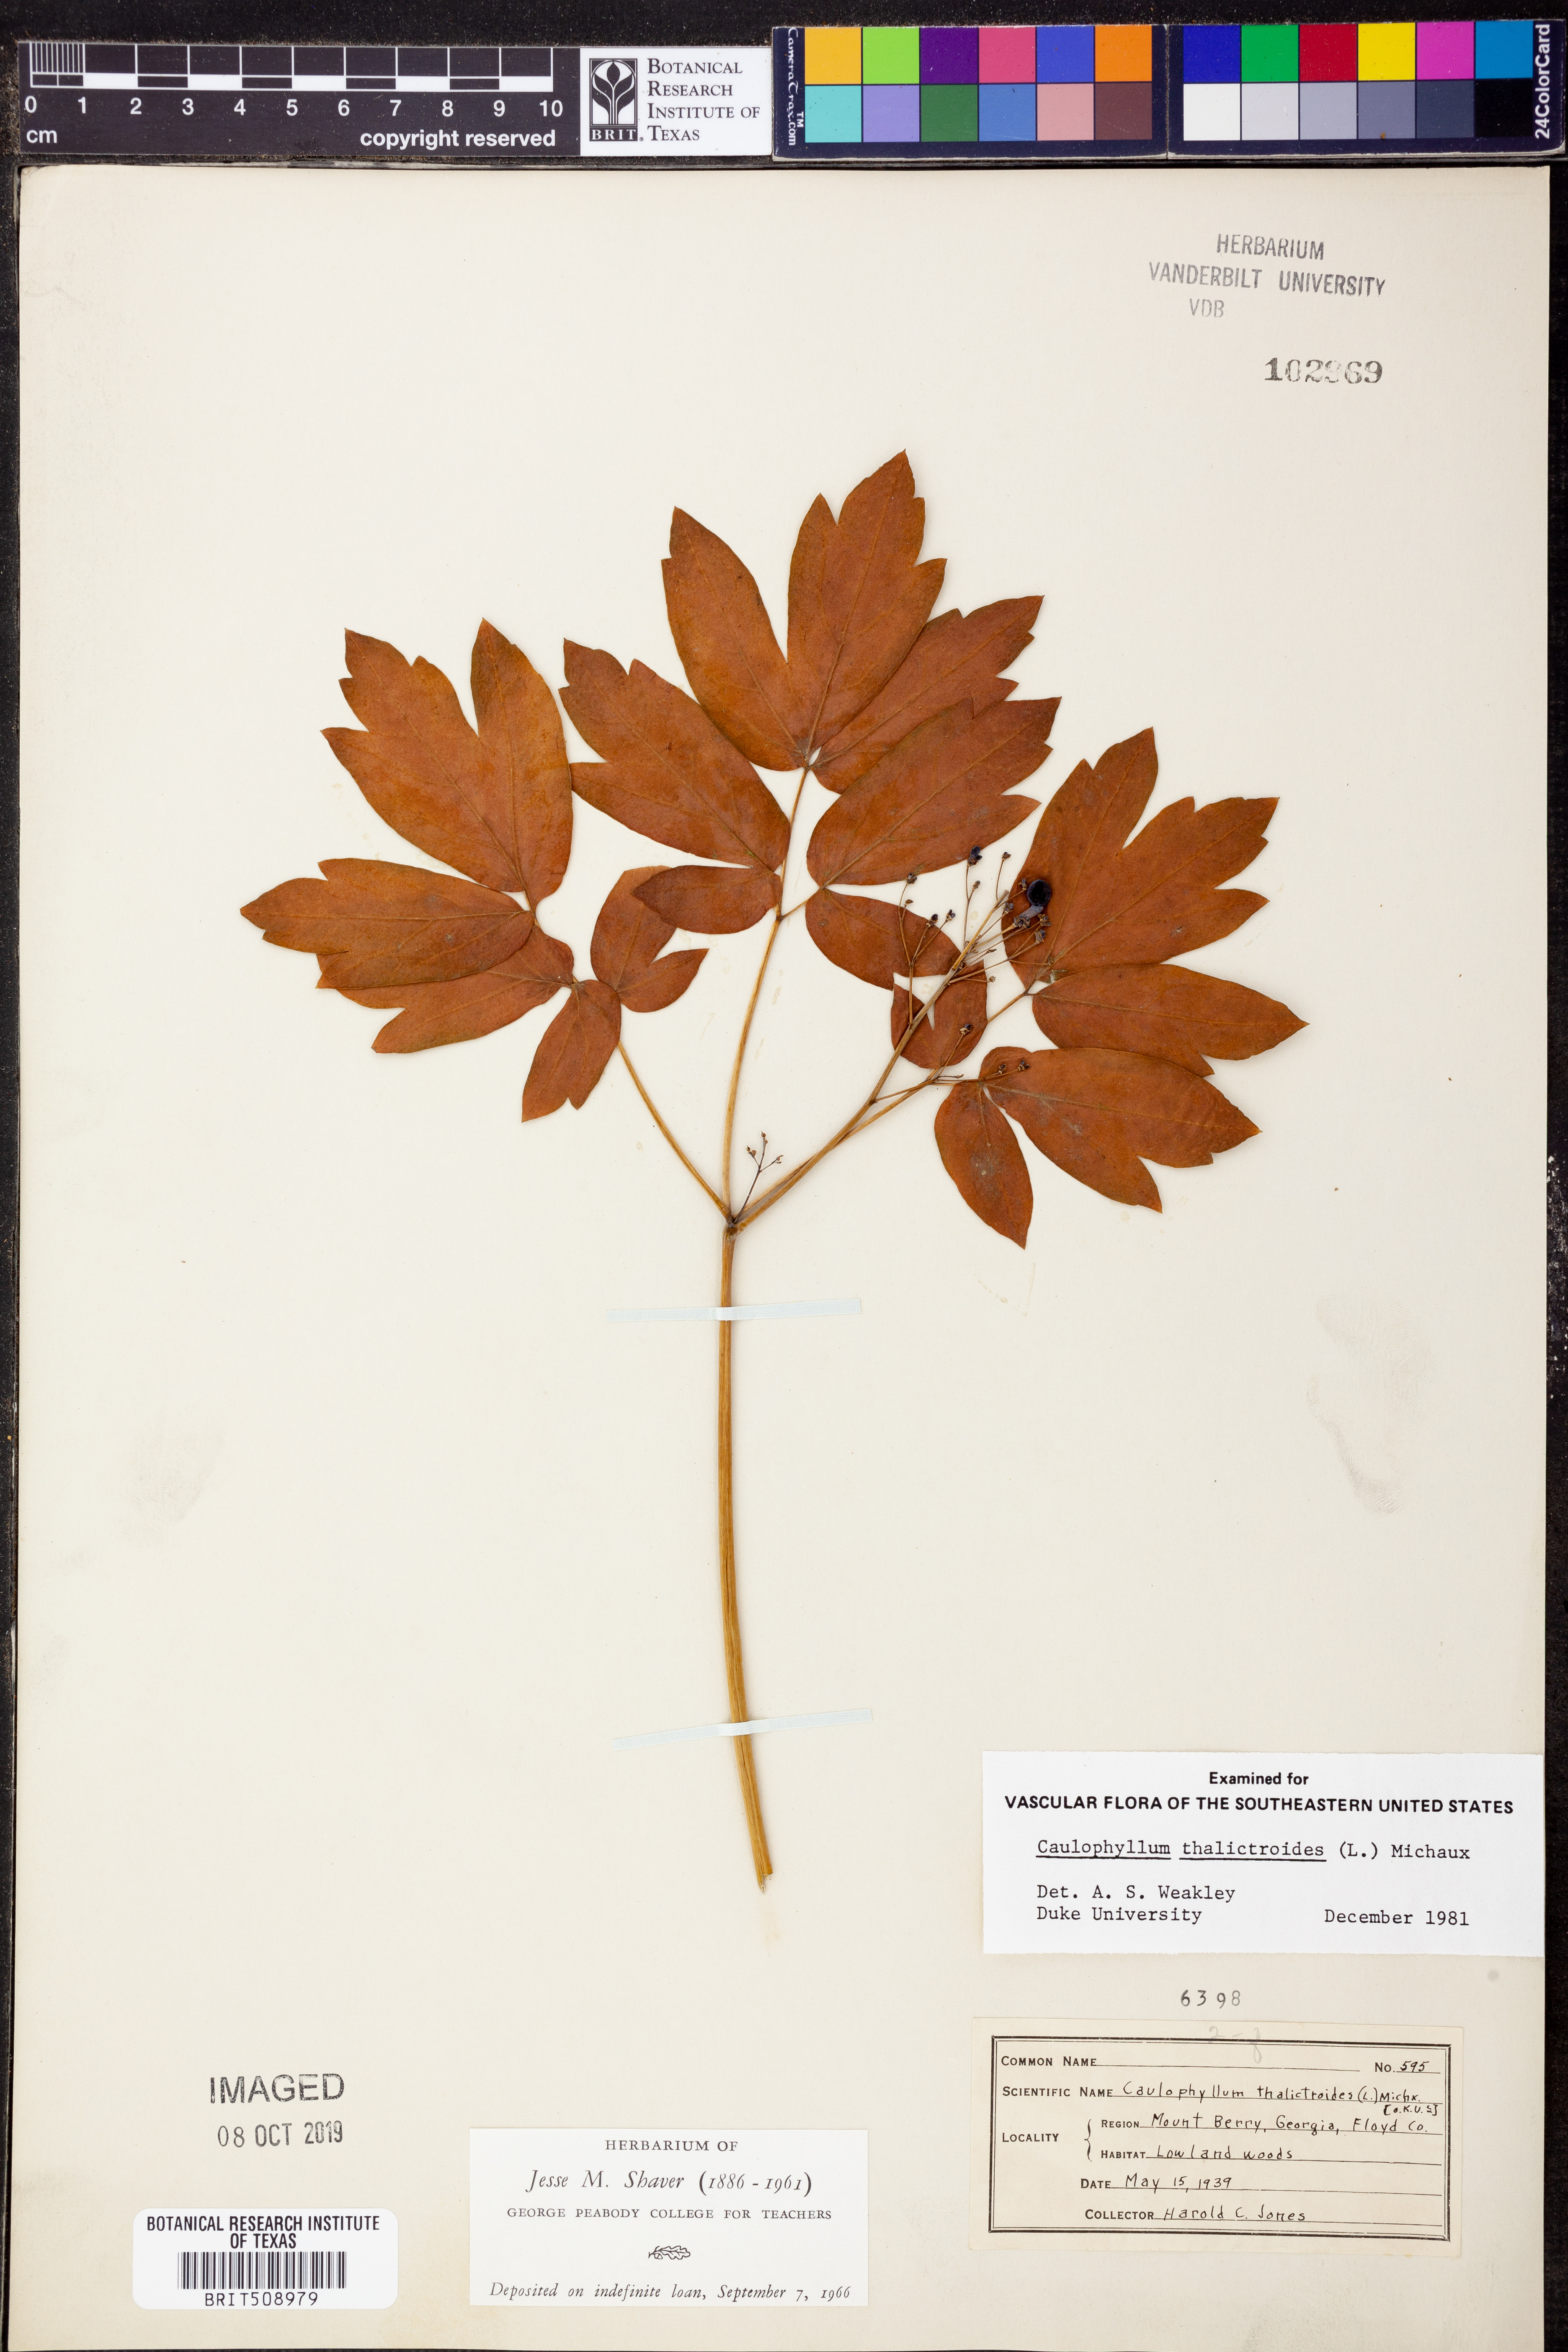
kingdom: Plantae
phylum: Tracheophyta
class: Magnoliopsida
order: Ranunculales
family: Berberidaceae
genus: Caulophyllum
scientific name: Caulophyllum thalictroides
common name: Blue cohosh
